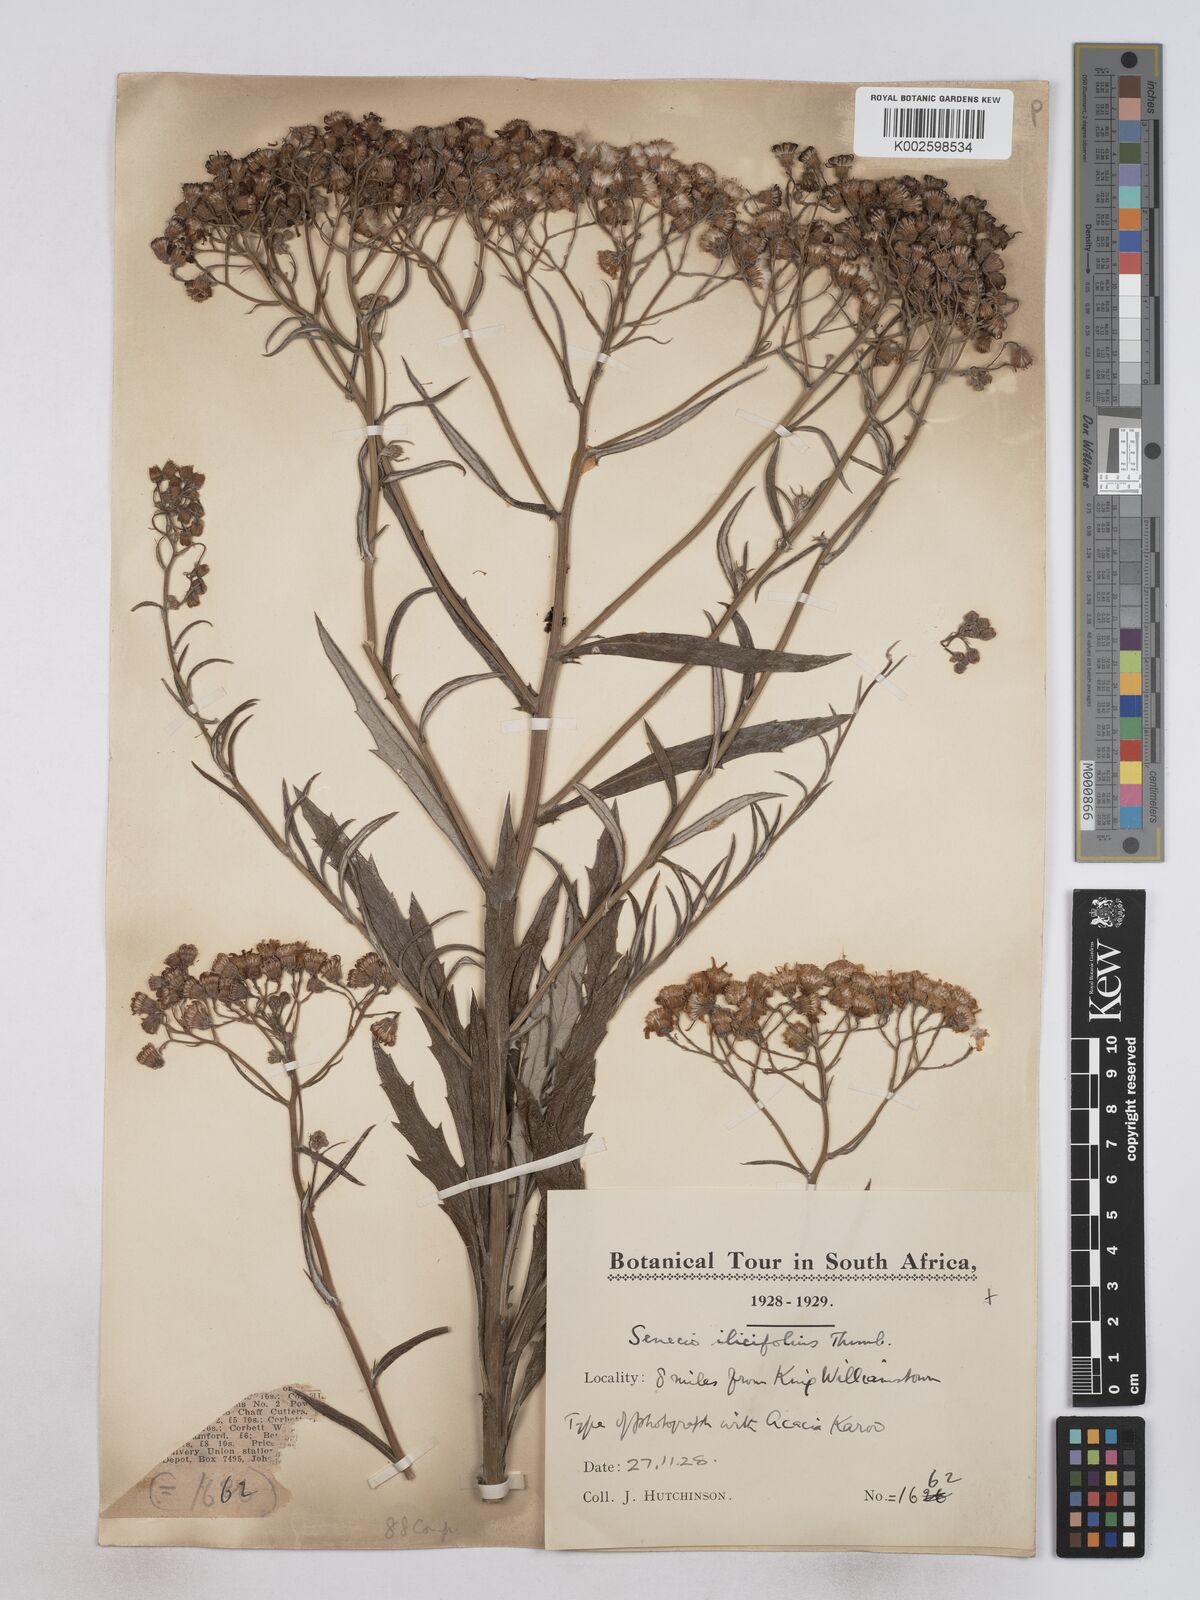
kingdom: Plantae
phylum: Tracheophyta
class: Magnoliopsida
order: Asterales
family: Asteraceae
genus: Senecio
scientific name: Senecio ilicifolius
